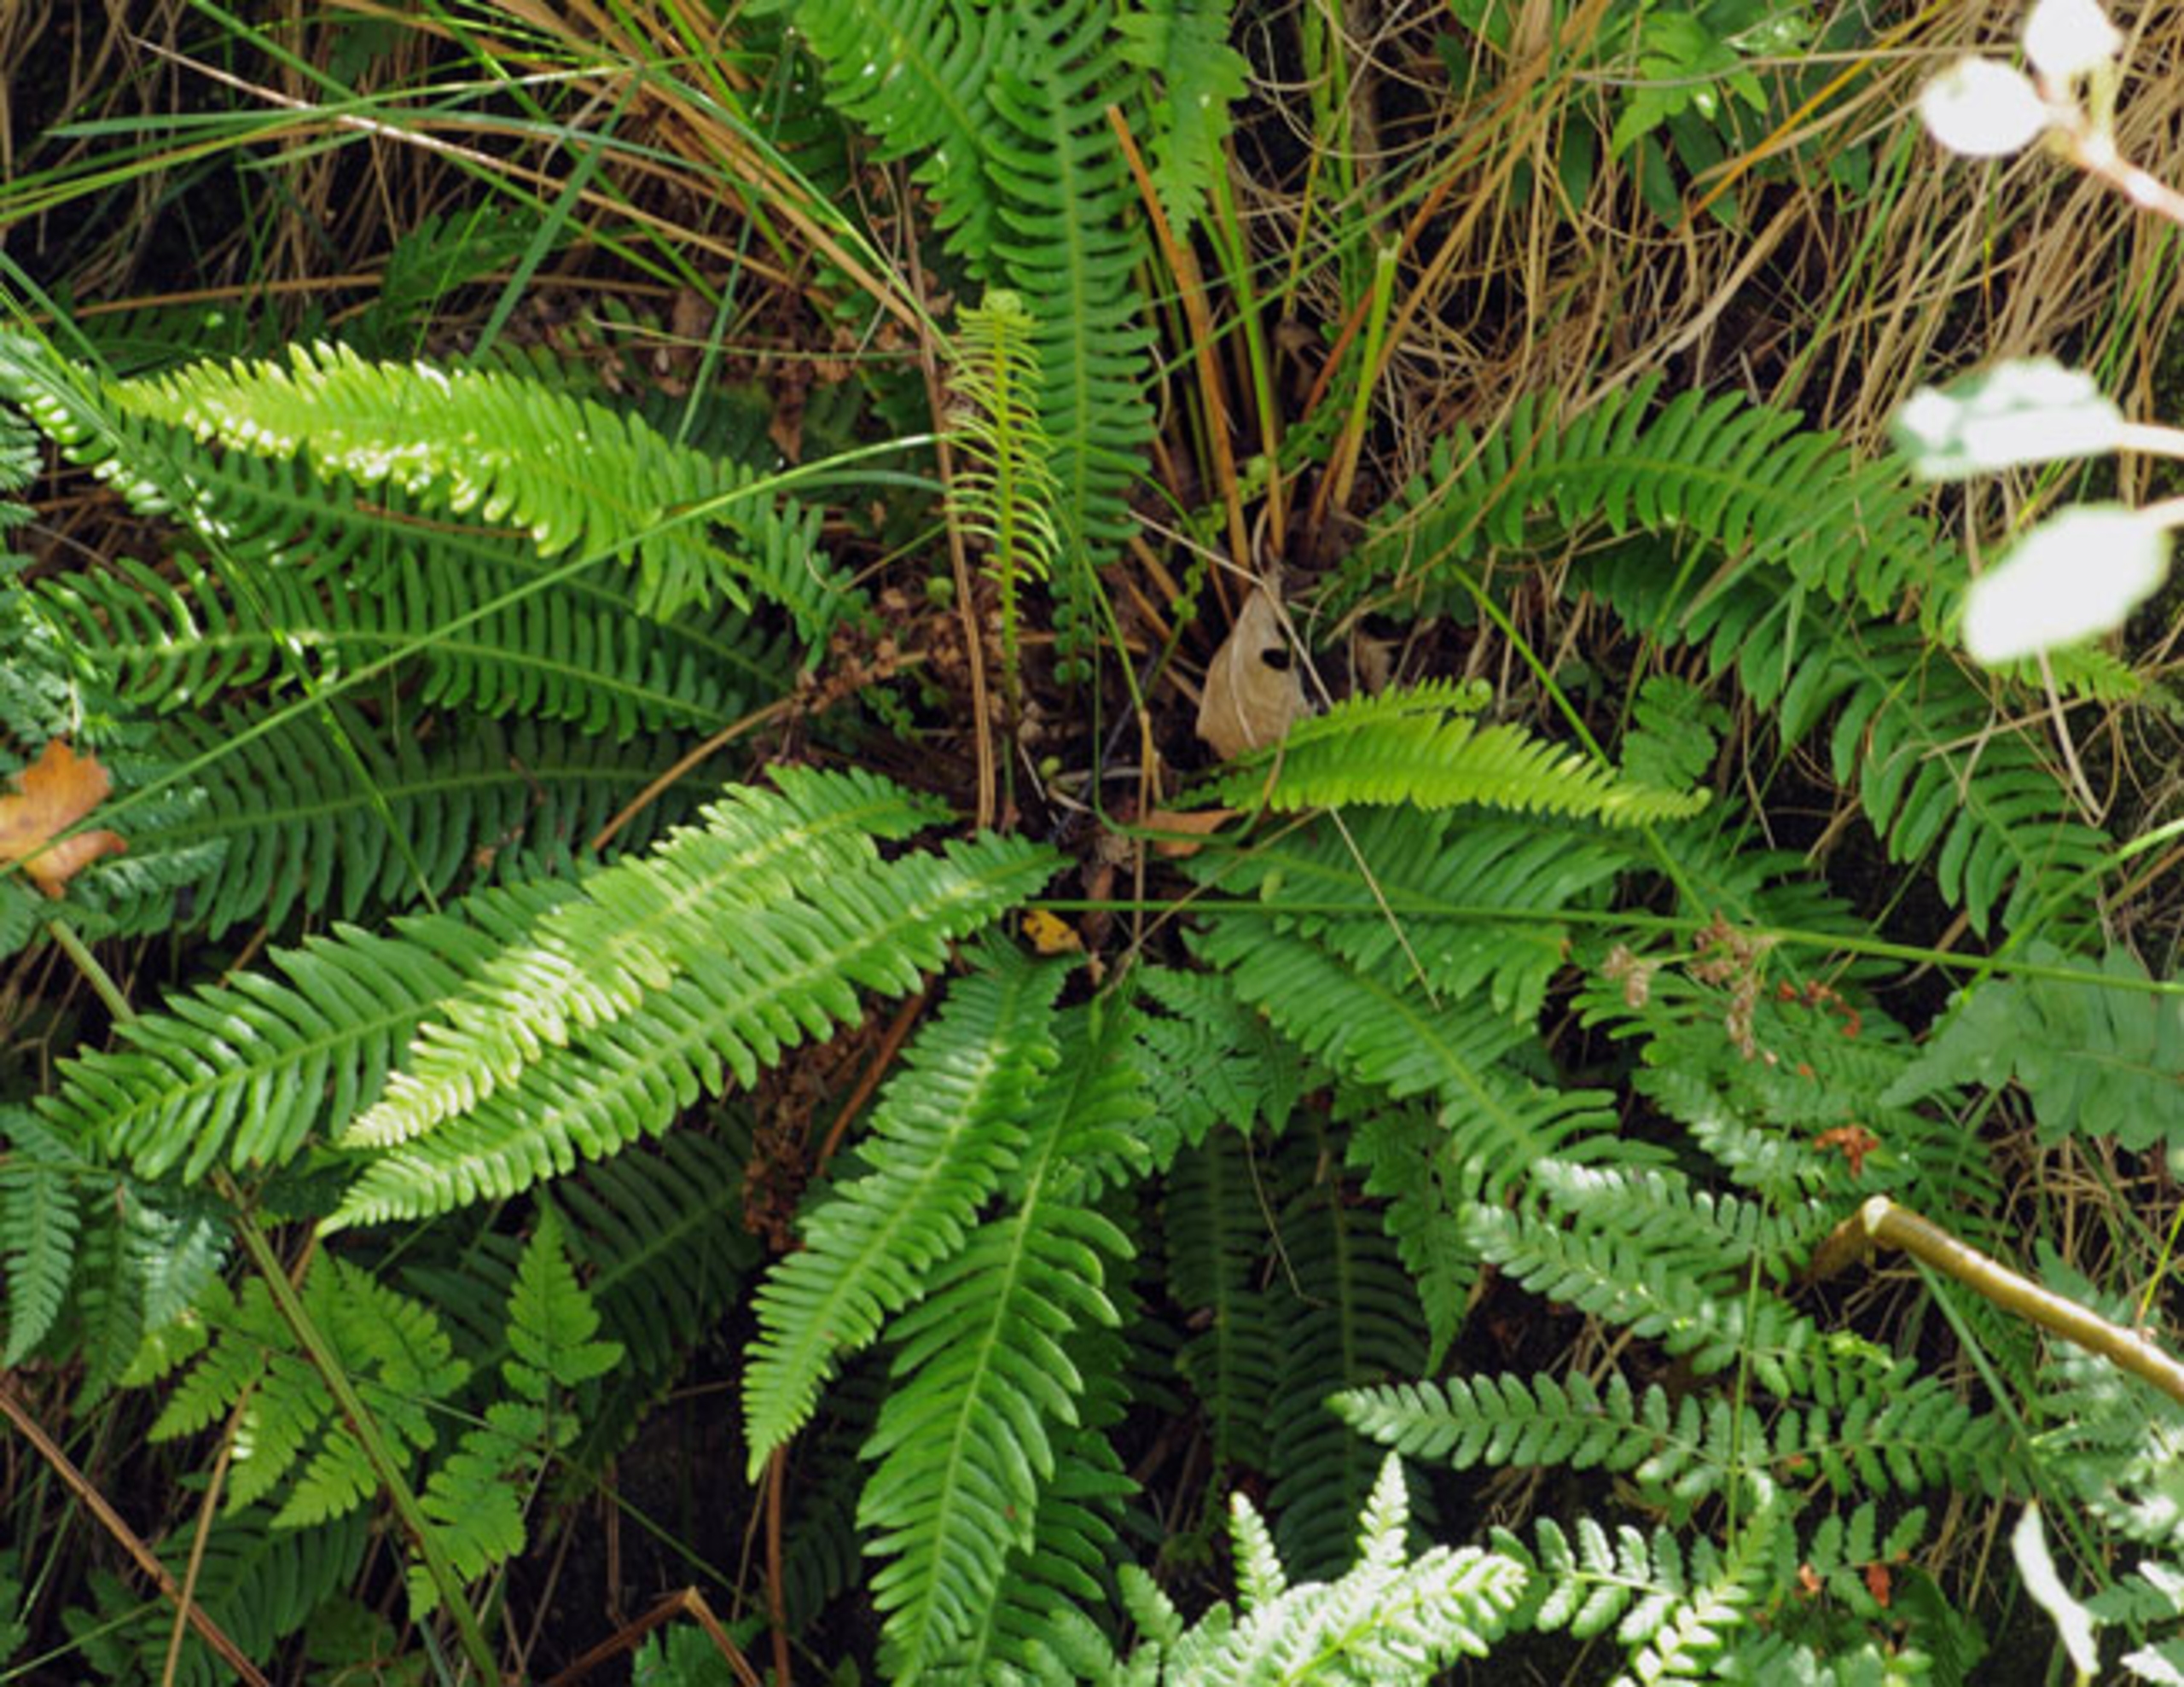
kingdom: Plantae
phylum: Tracheophyta
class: Polypodiopsida
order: Polypodiales
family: Blechnaceae
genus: Struthiopteris
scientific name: Struthiopteris spicant
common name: Kambregne
